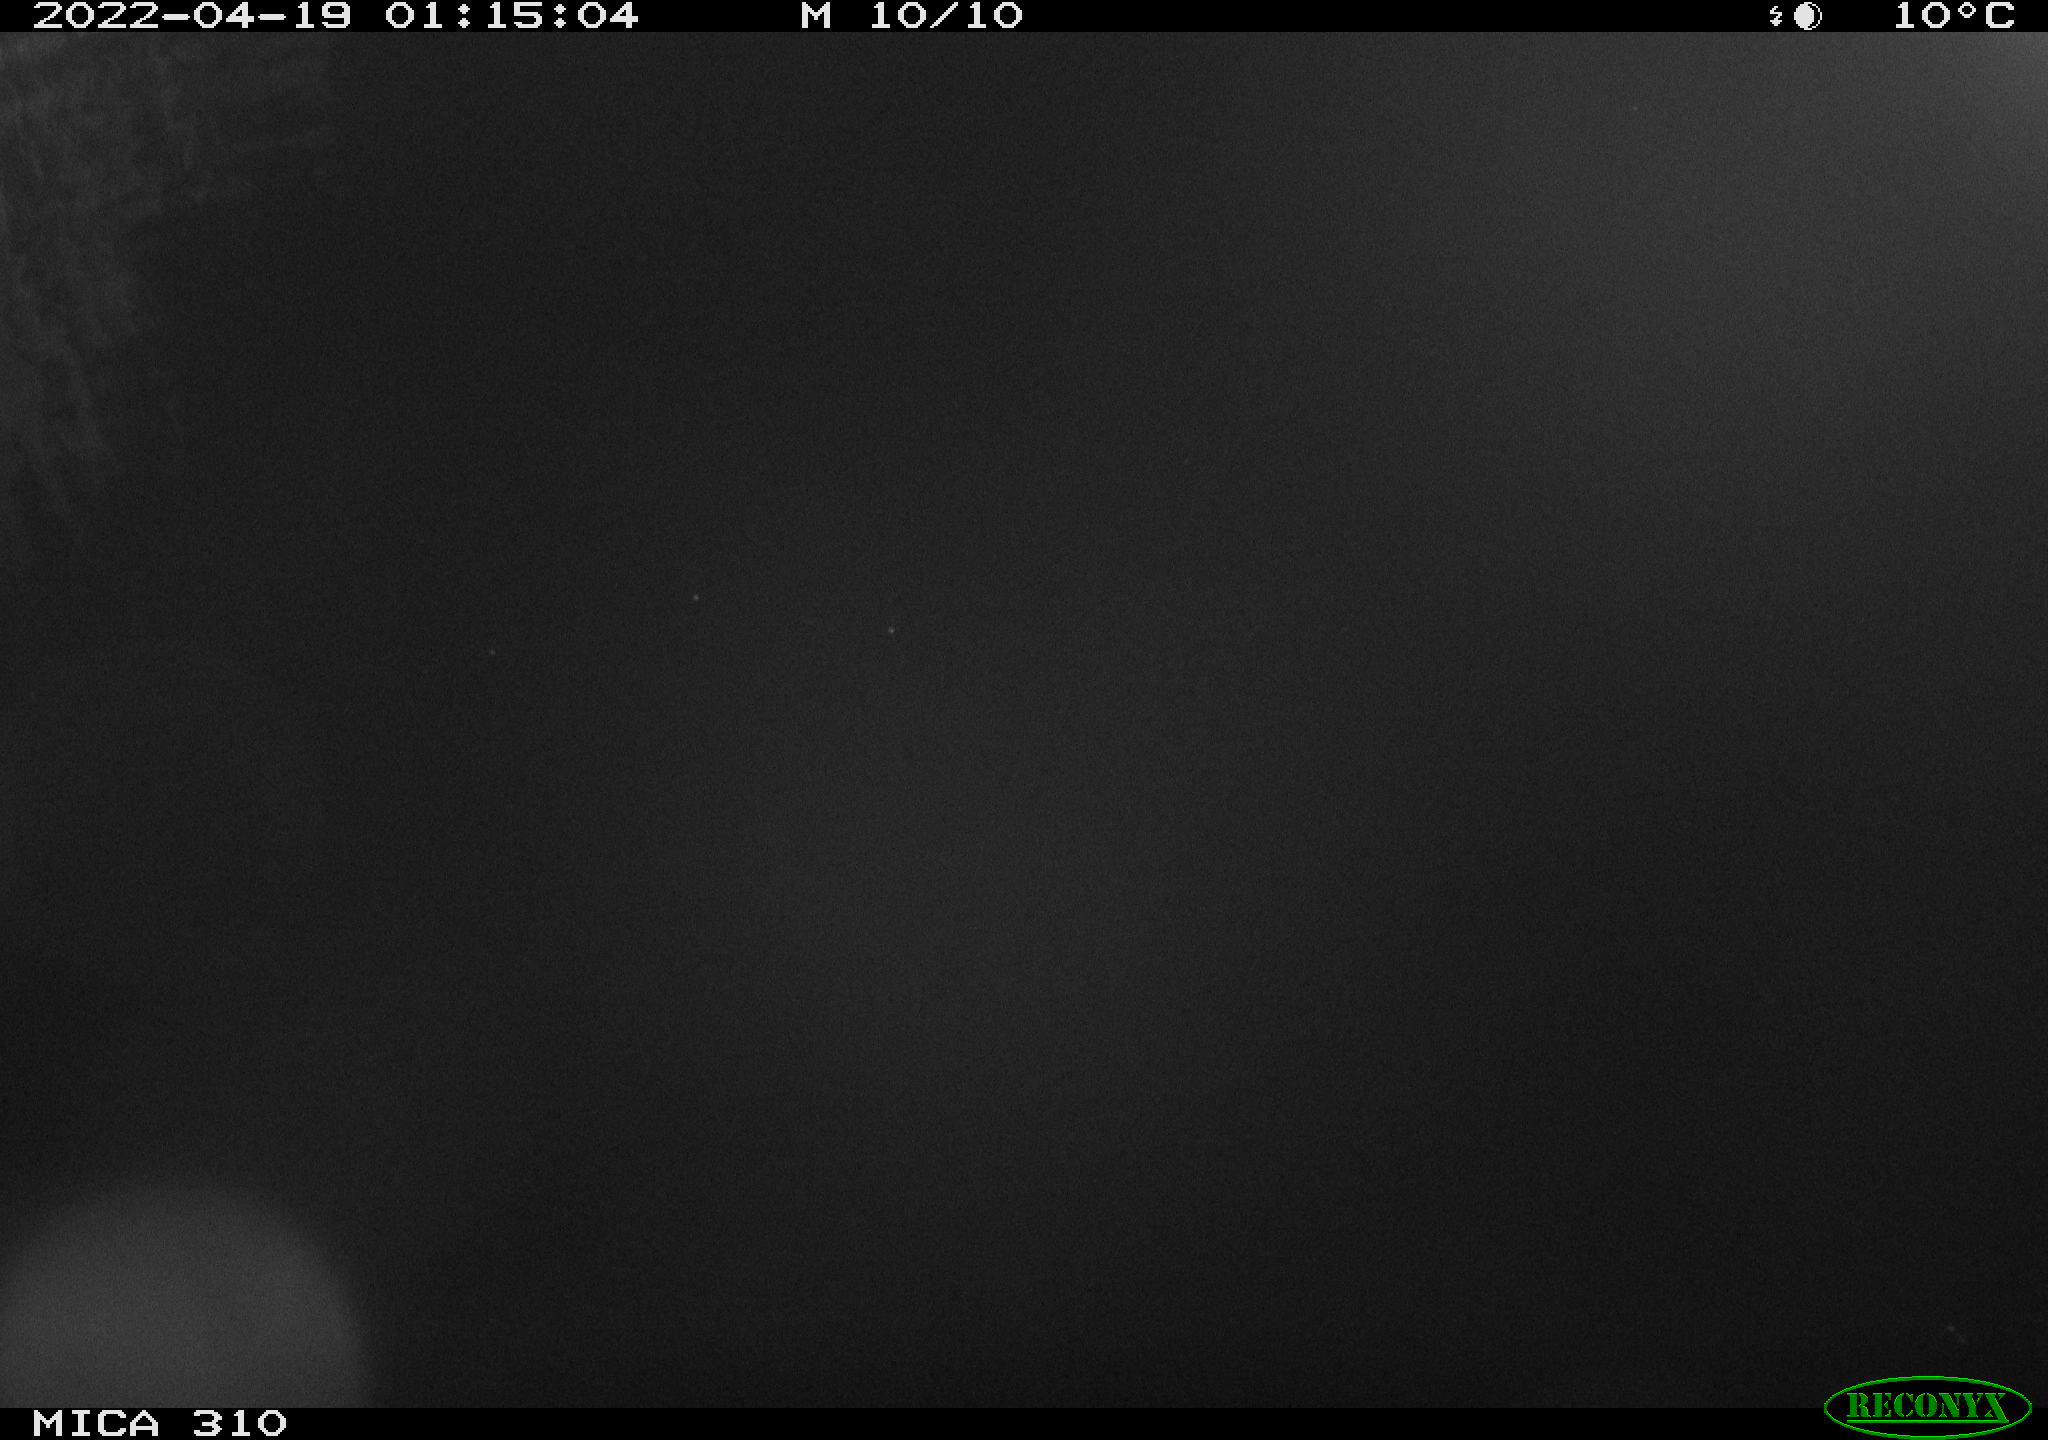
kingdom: Animalia
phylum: Chordata
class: Aves
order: Anseriformes
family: Anatidae
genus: Anas
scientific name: Anas platyrhynchos
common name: Mallard
